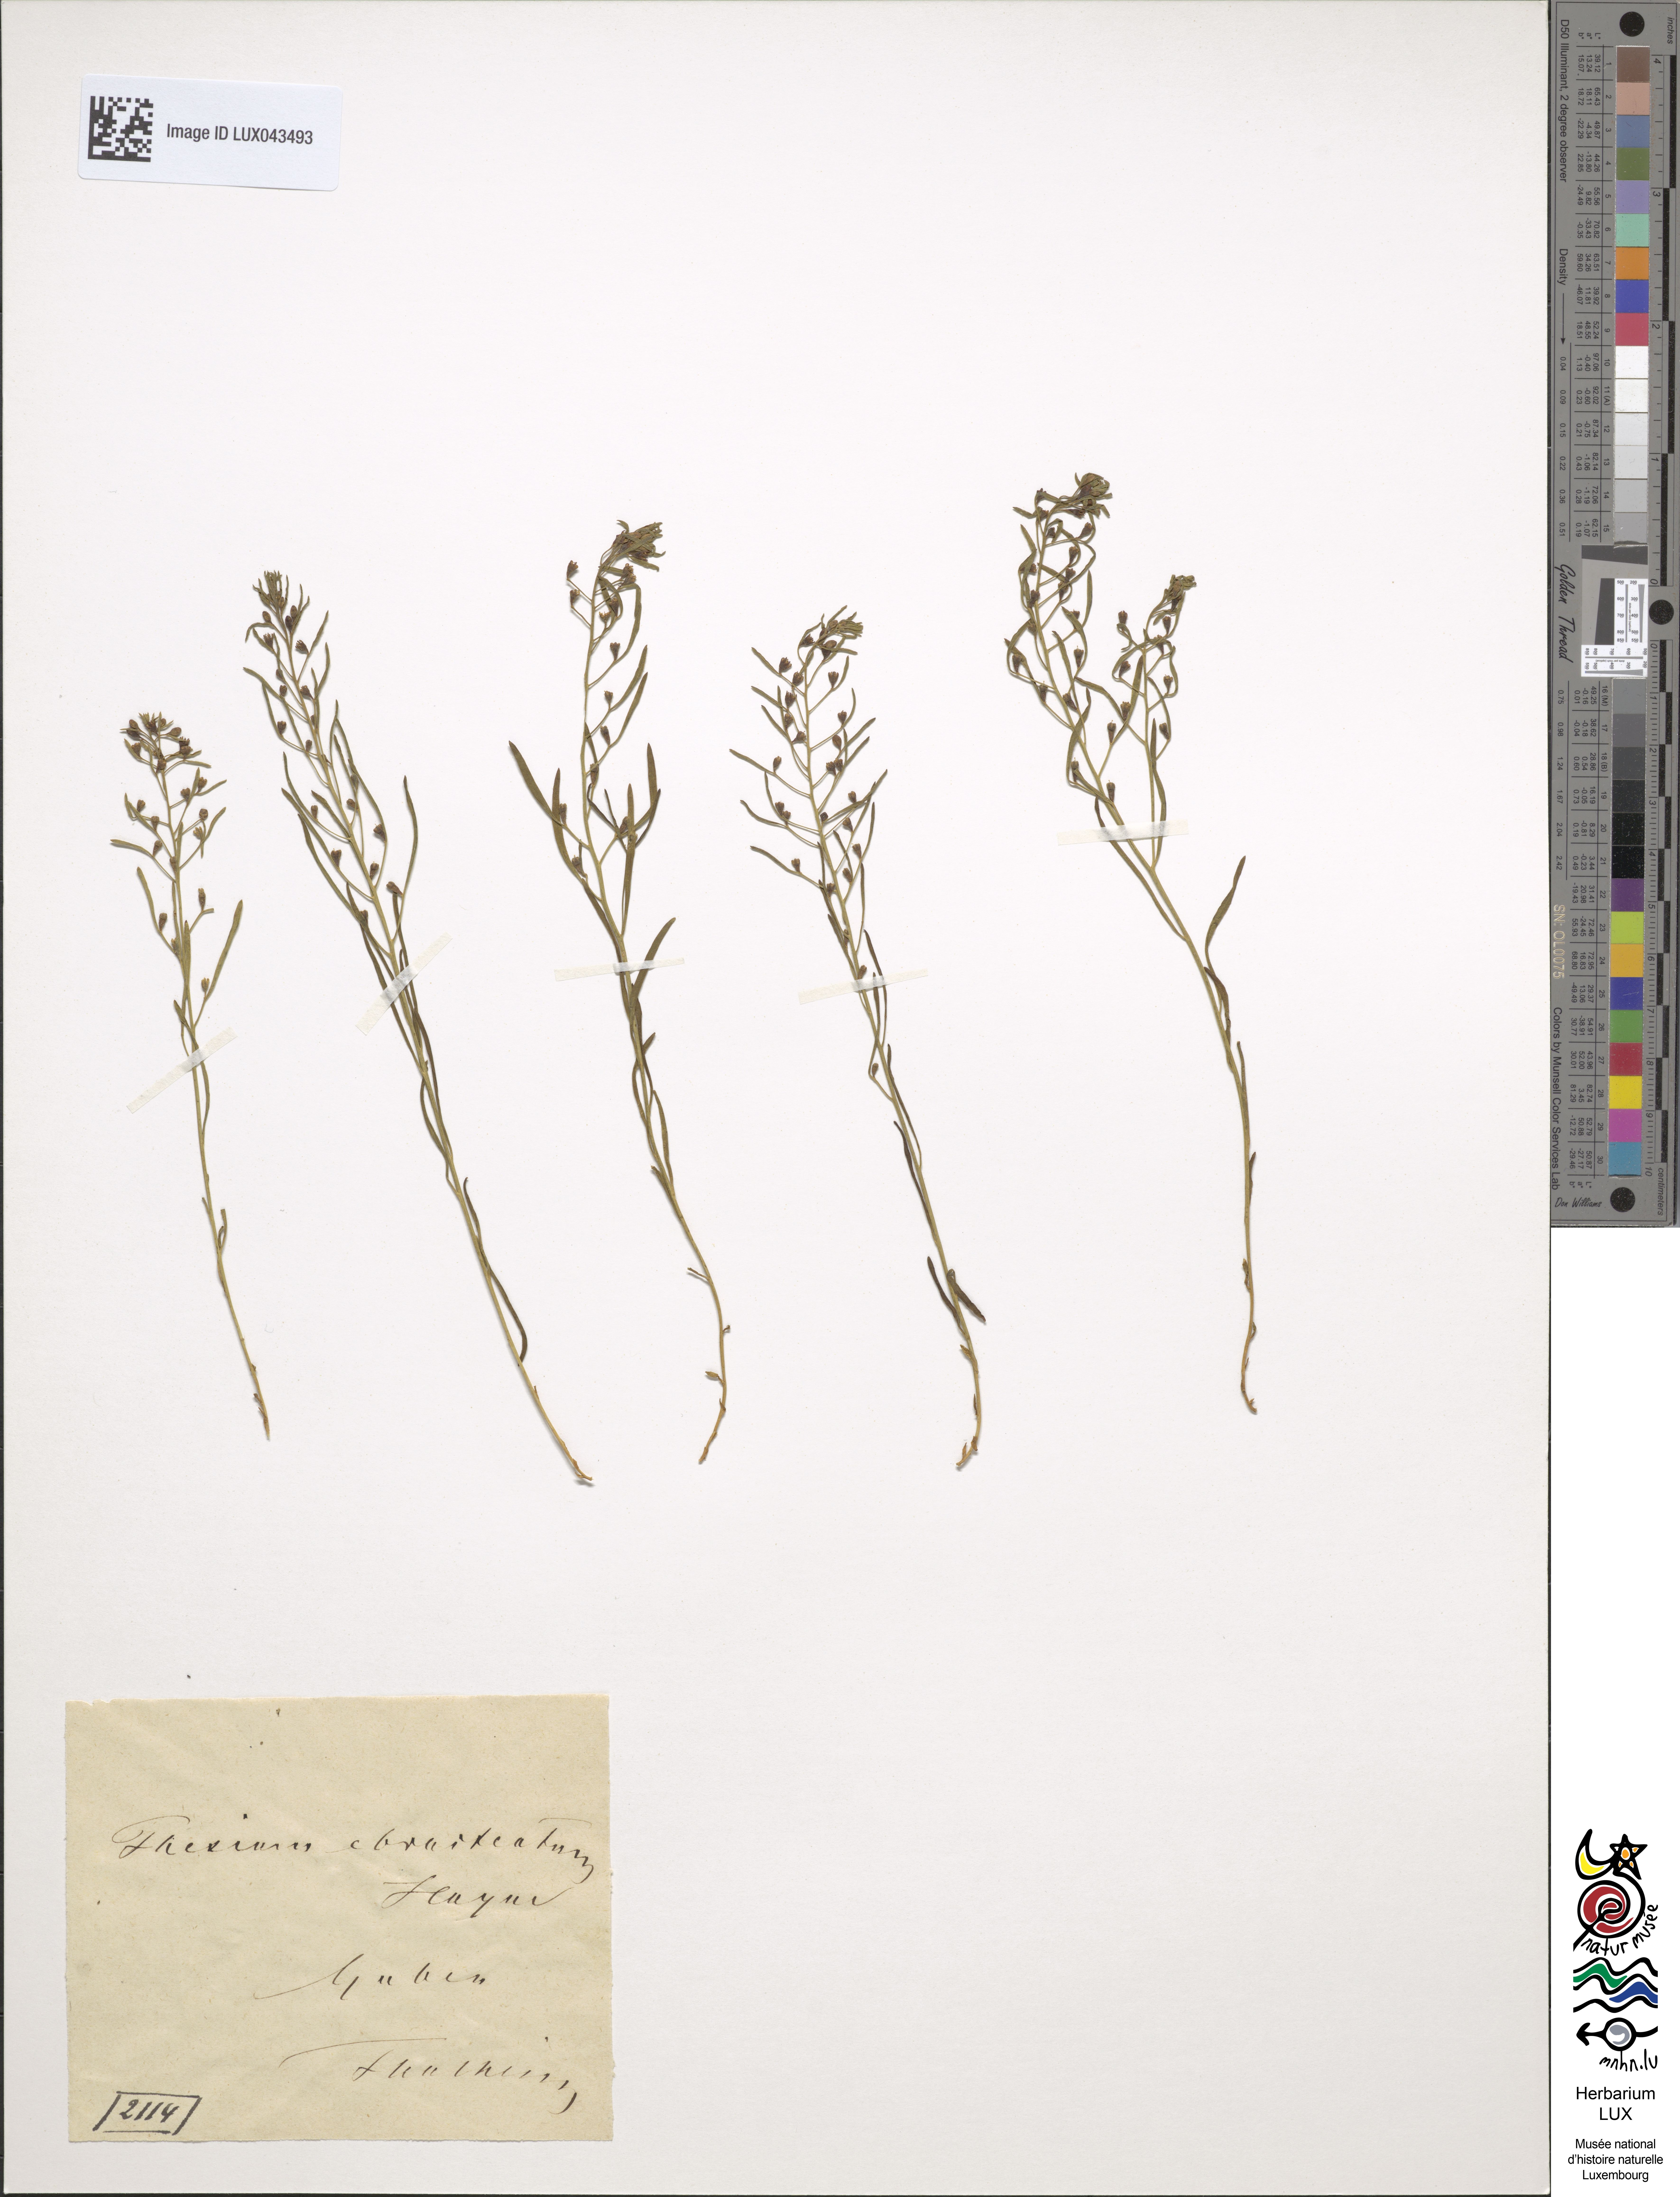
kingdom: Plantae
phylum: Tracheophyta
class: Magnoliopsida
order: Santalales
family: Thesiaceae
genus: Thesium
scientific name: Thesium ebracteatum
